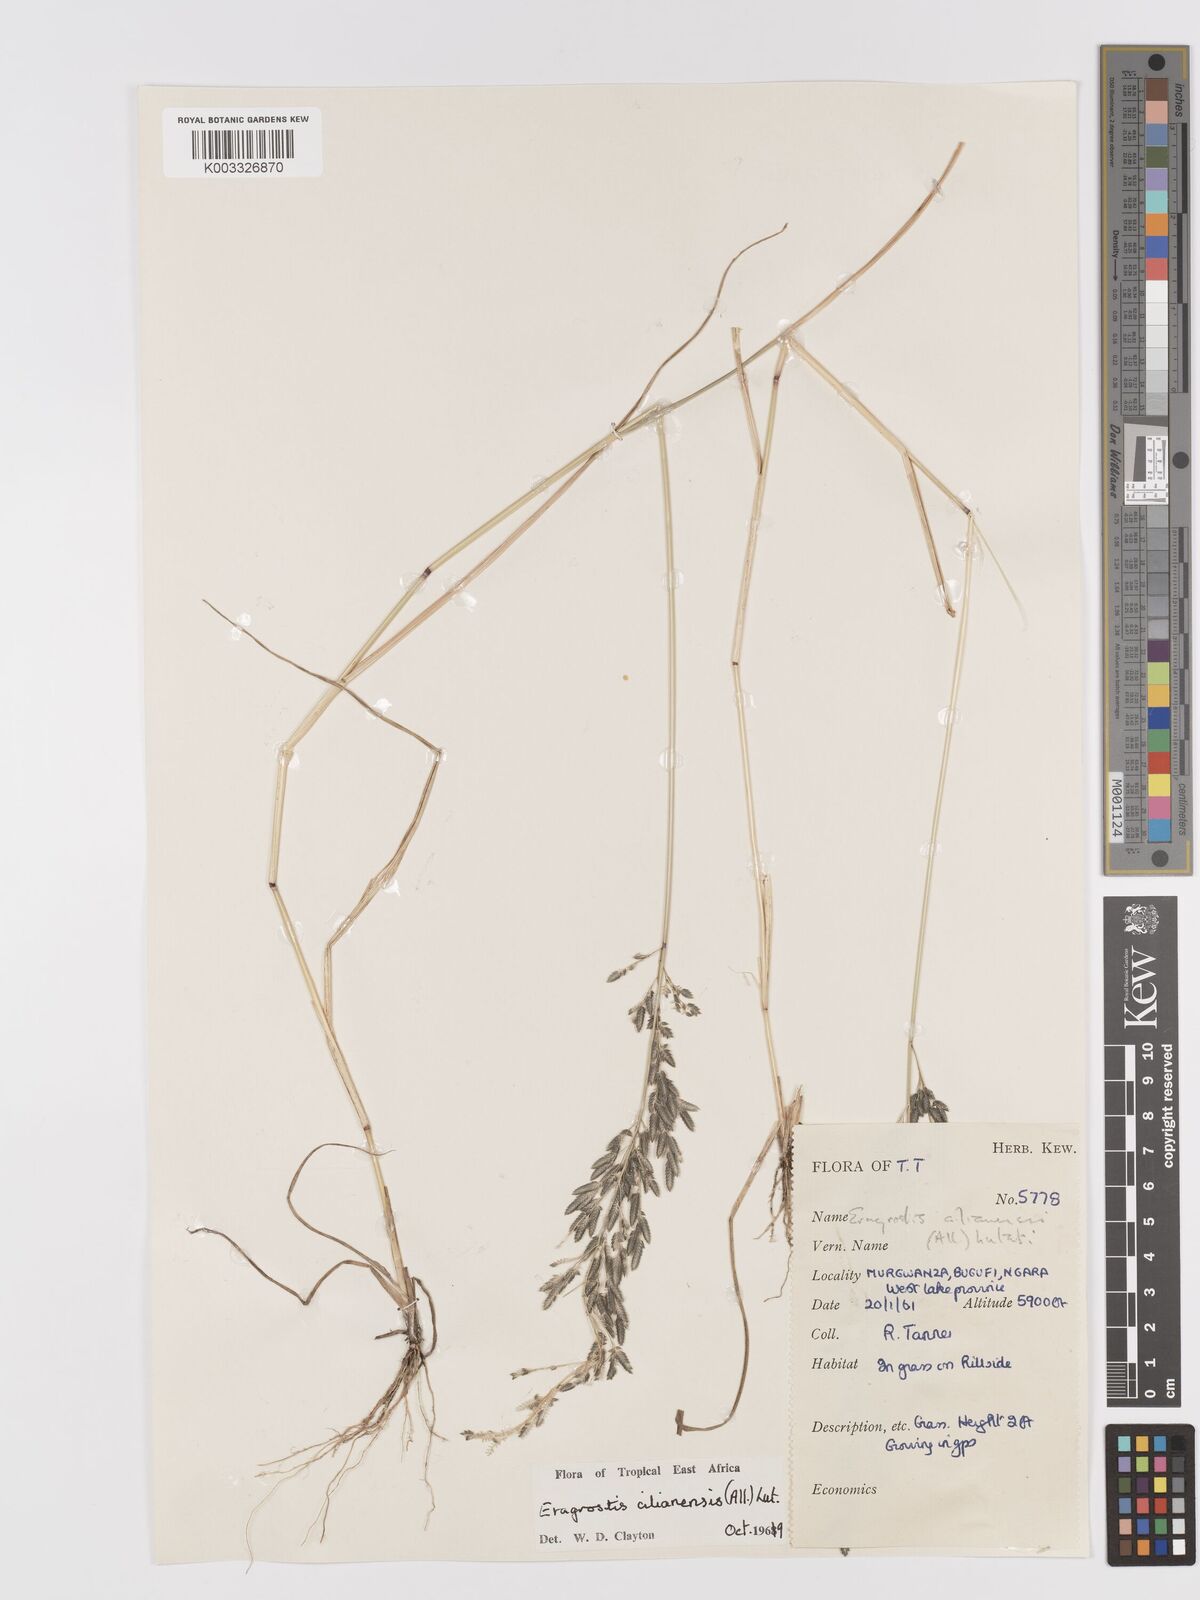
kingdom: Plantae
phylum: Tracheophyta
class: Liliopsida
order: Poales
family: Poaceae
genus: Eragrostis
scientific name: Eragrostis cilianensis
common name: Stinkgrass
